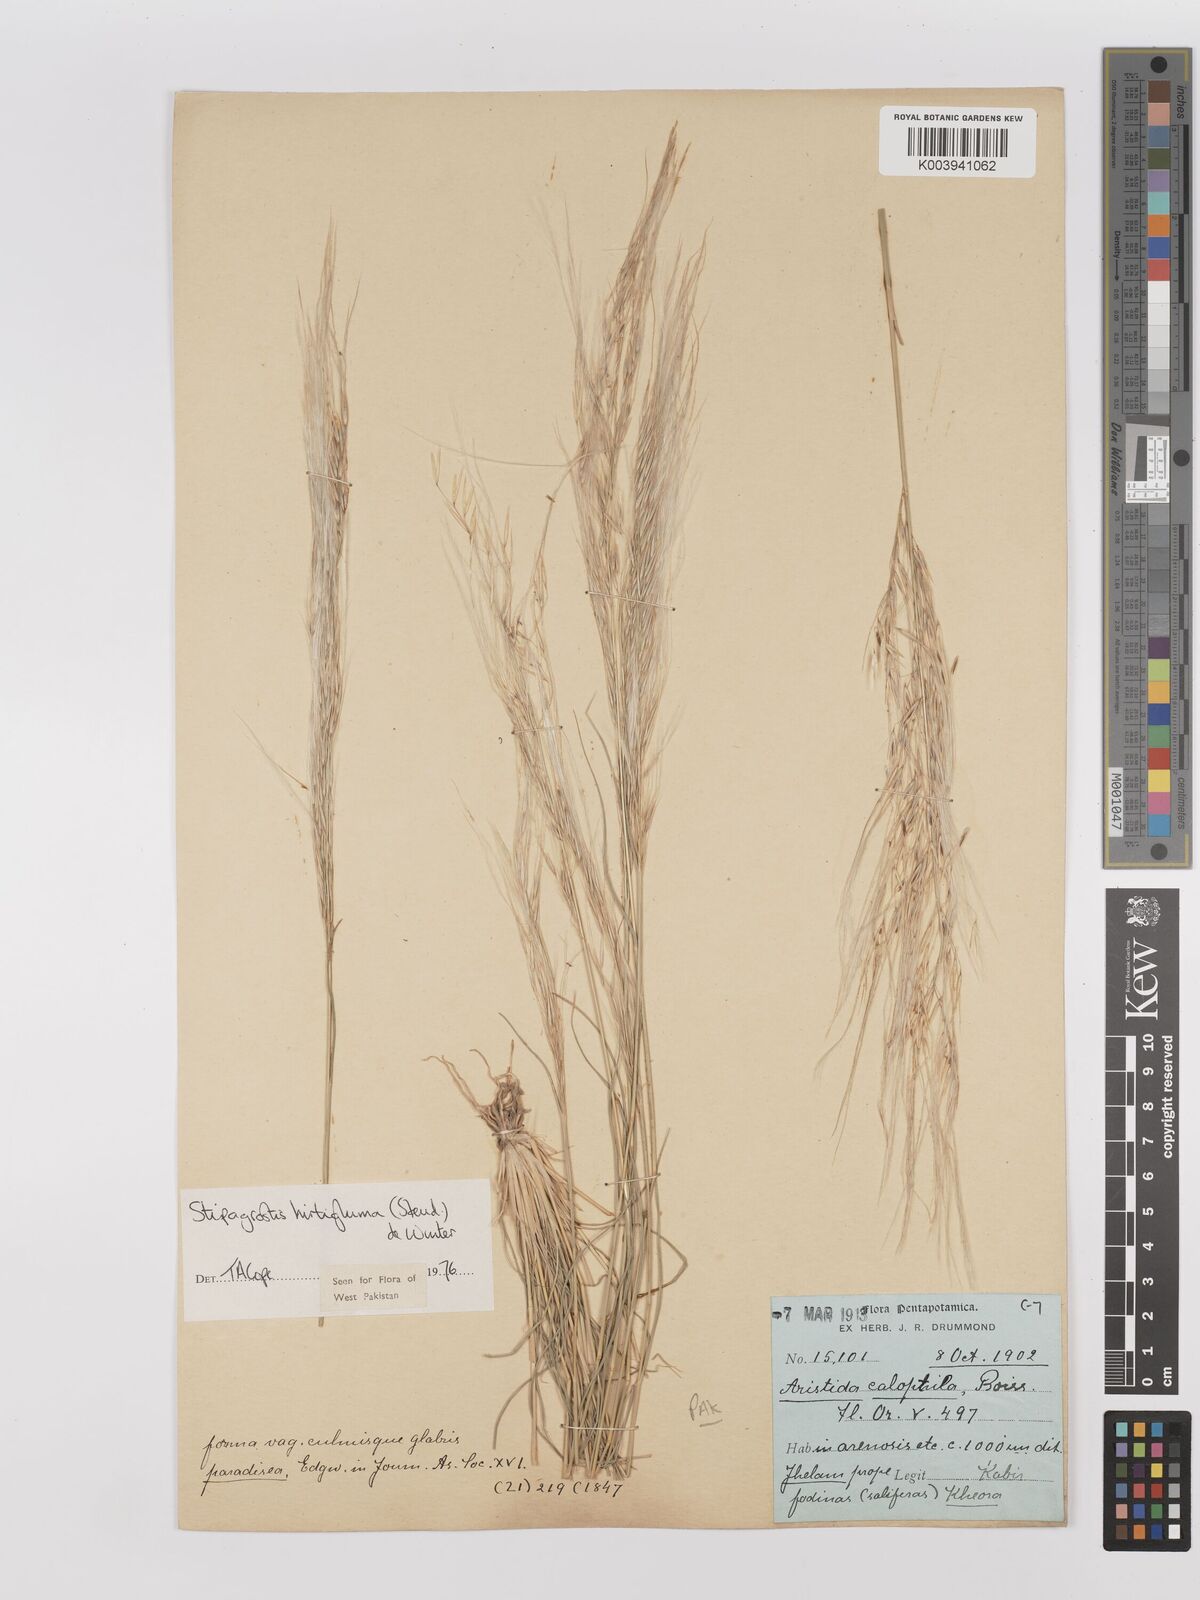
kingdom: Plantae
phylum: Tracheophyta
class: Liliopsida
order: Poales
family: Poaceae
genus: Stipagrostis
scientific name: Stipagrostis hirtigluma
